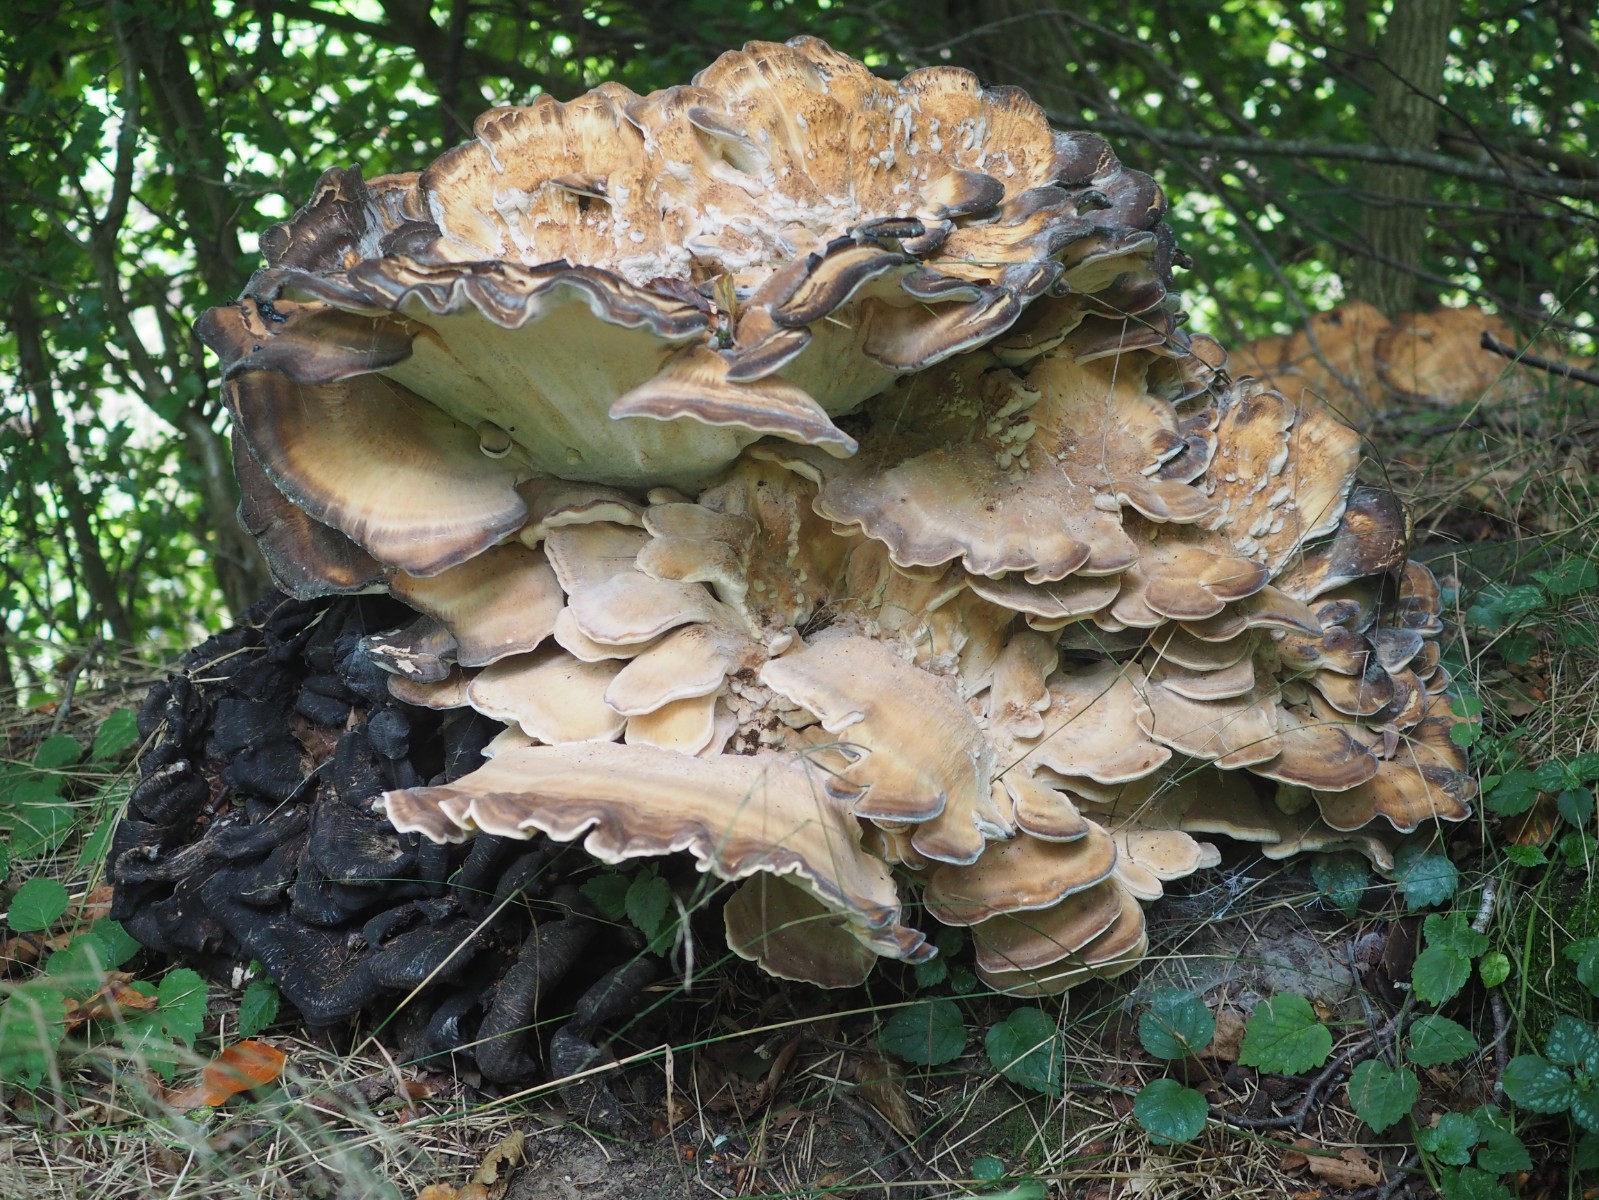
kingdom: Fungi
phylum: Basidiomycota
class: Agaricomycetes
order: Polyporales
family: Meripilaceae
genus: Meripilus
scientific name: Meripilus giganteus
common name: kæmpeporesvamp
